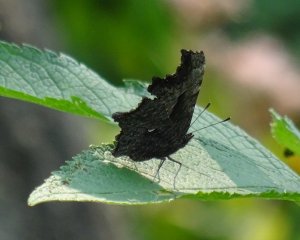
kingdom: Animalia
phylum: Arthropoda
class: Insecta
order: Lepidoptera
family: Nymphalidae
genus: Polygonia
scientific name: Polygonia progne
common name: Gray Comma
